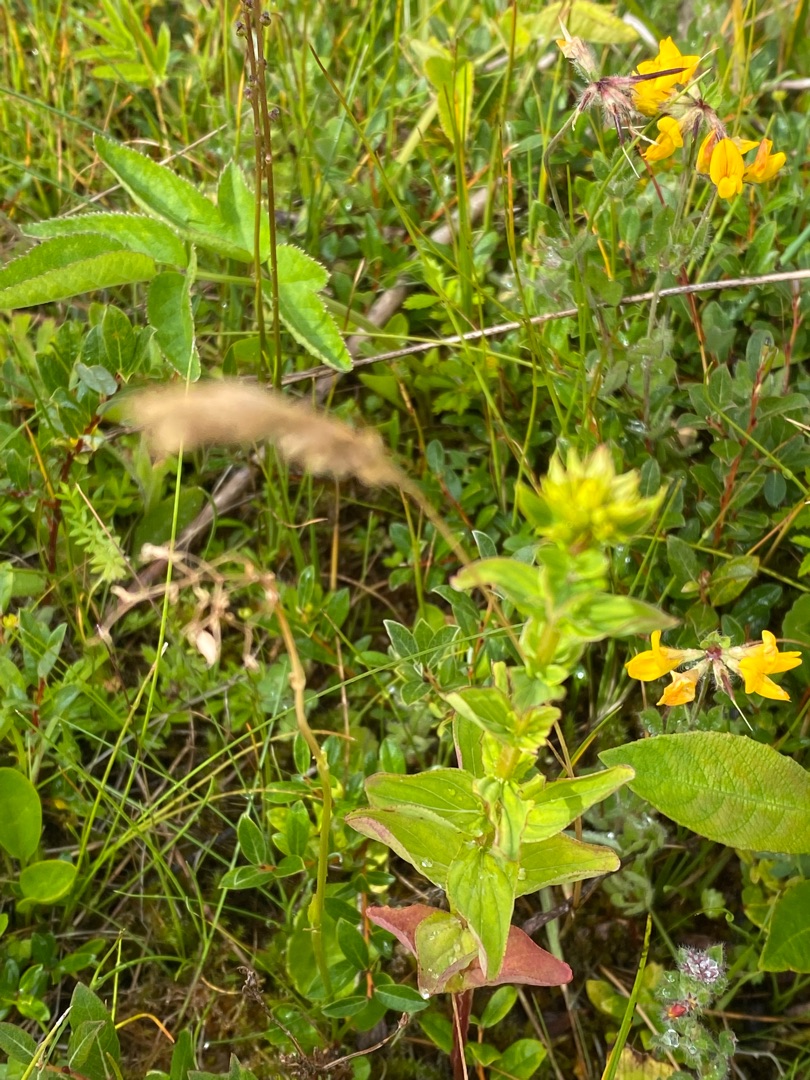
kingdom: Plantae
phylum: Tracheophyta
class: Magnoliopsida
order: Malpighiales
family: Hypericaceae
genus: Hypericum
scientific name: Hypericum tetrapterum
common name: Vinget perikon
